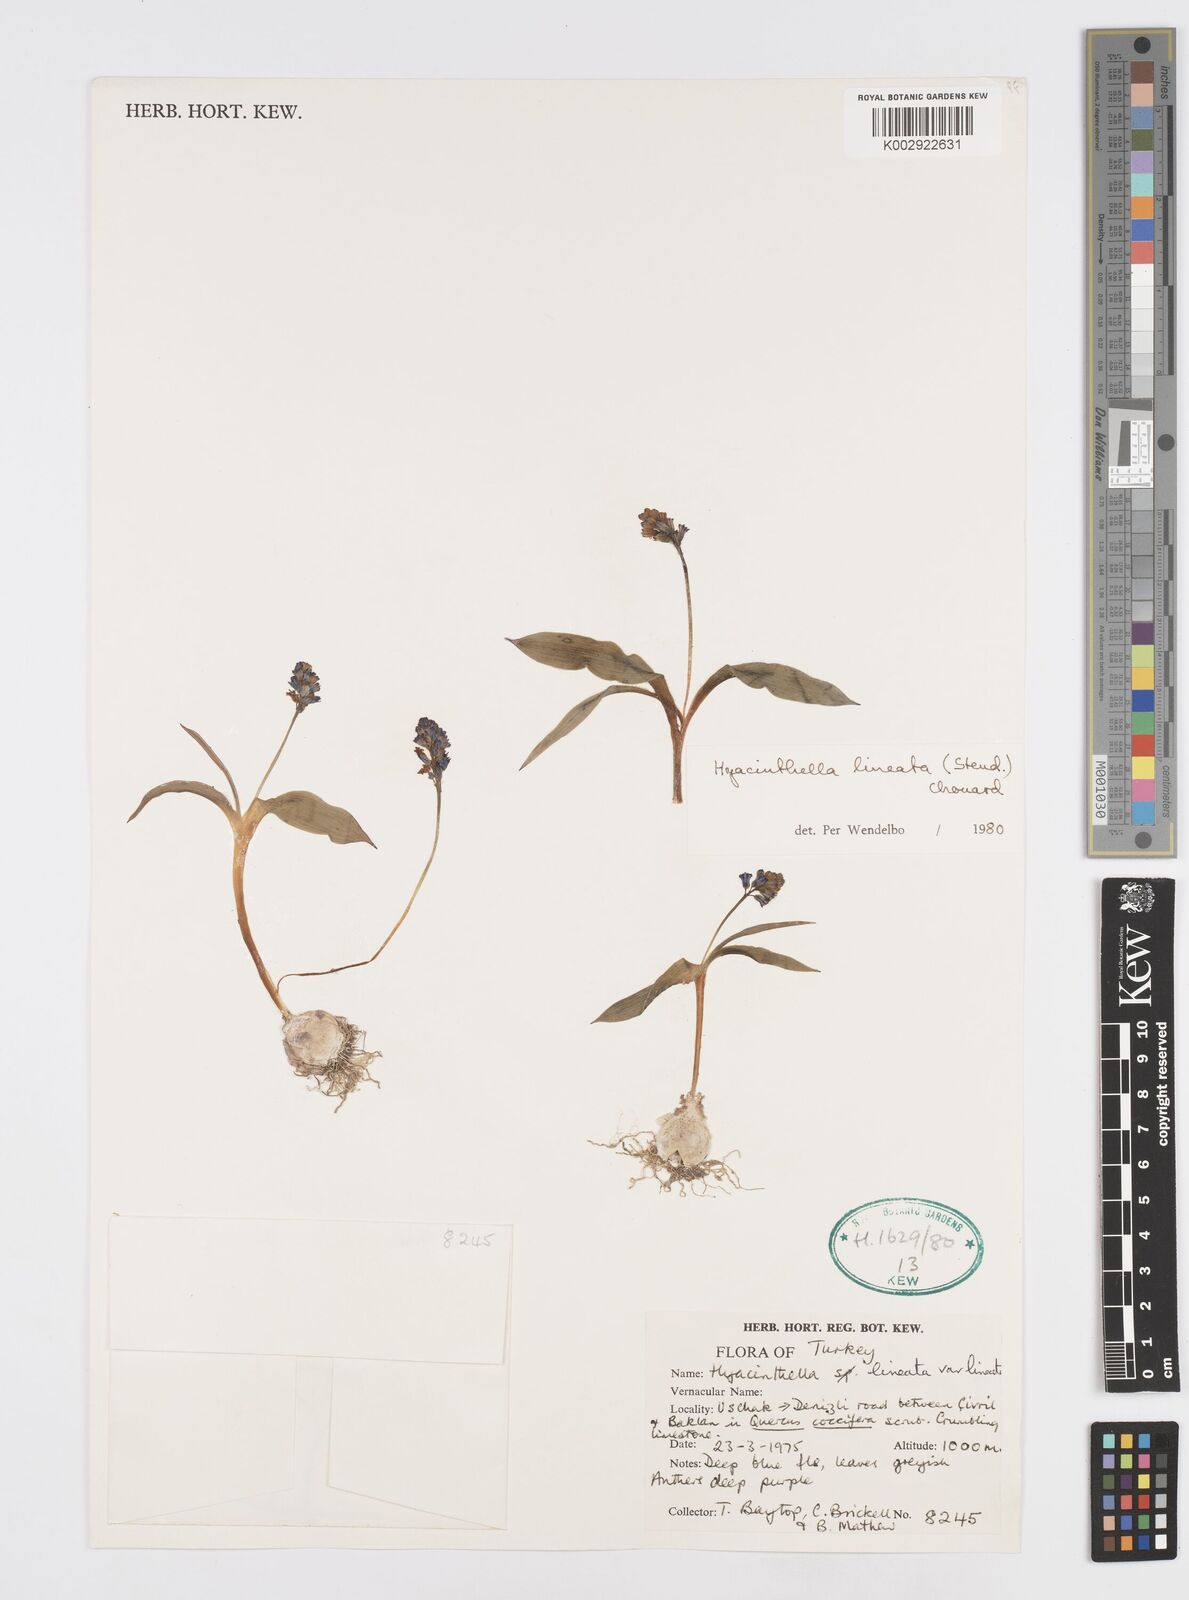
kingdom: Plantae
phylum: Tracheophyta
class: Liliopsida
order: Asparagales
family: Asparagaceae
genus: Hyacinthella
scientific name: Hyacinthella lineata
